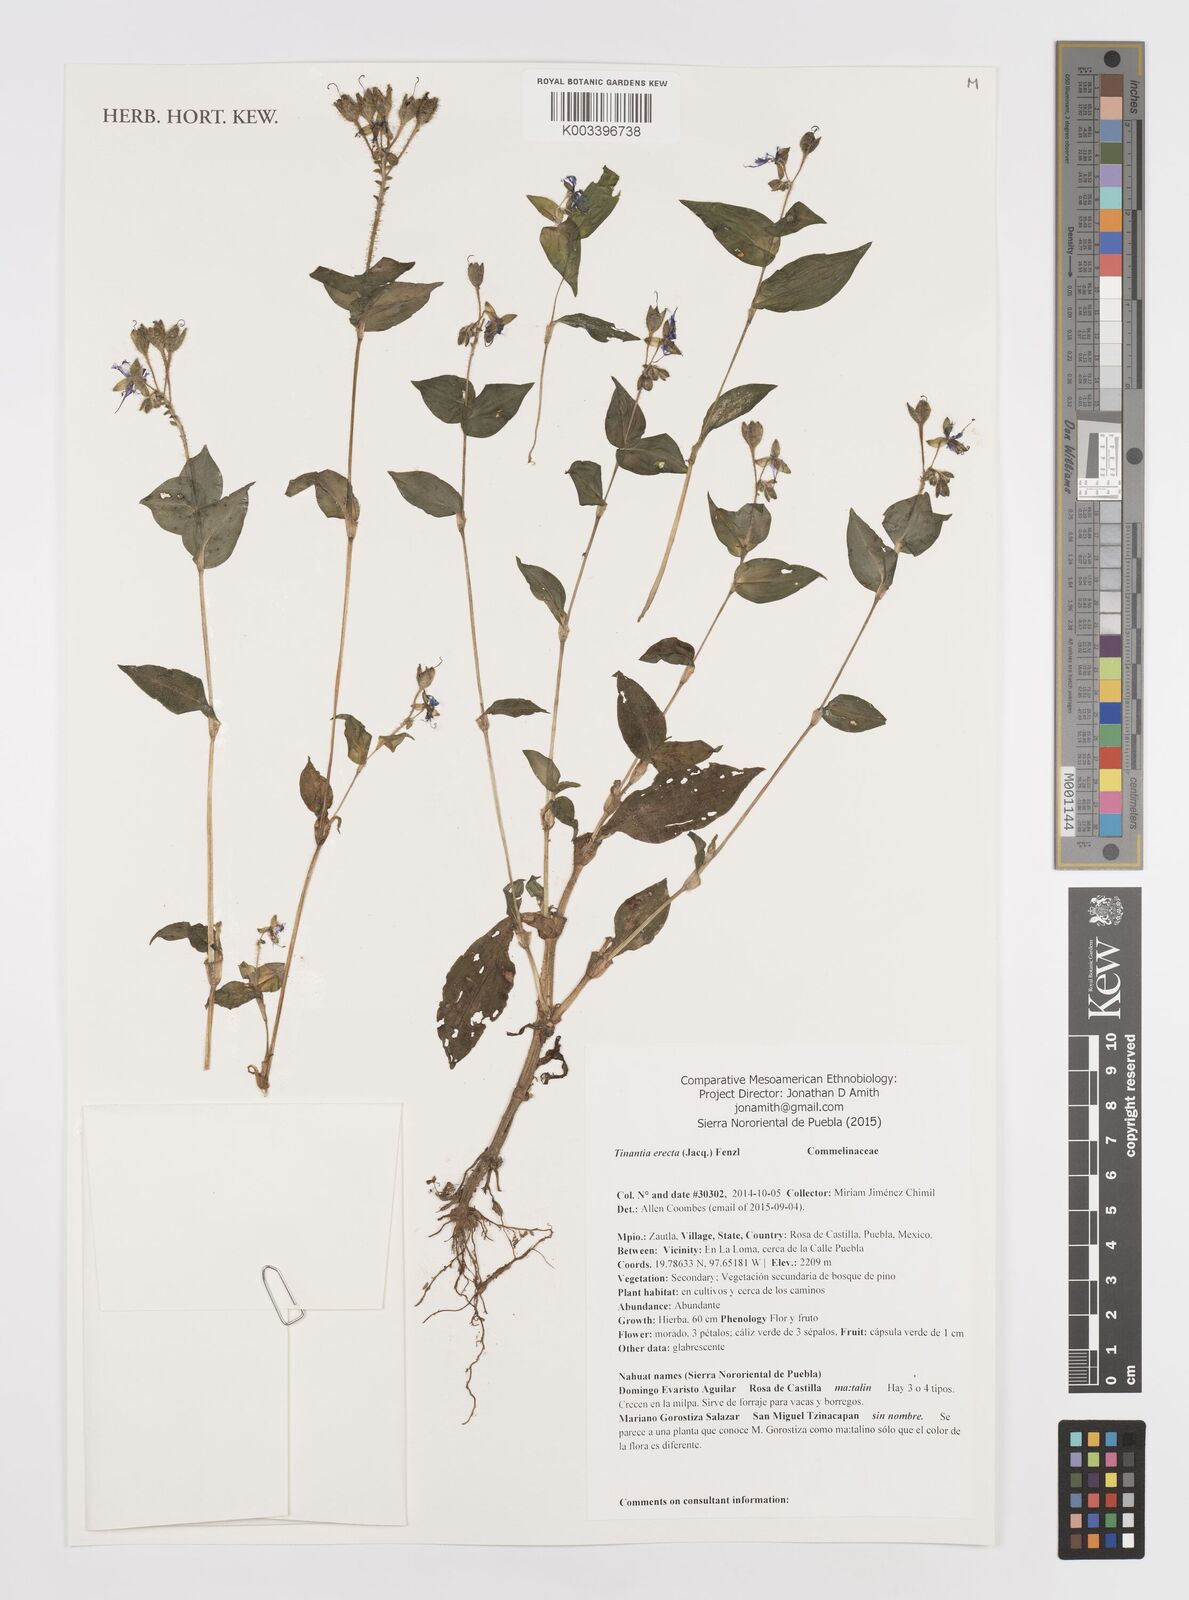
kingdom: Plantae
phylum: Tracheophyta
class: Liliopsida
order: Commelinales
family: Commelinaceae
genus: Tinantia
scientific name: Tinantia erecta
